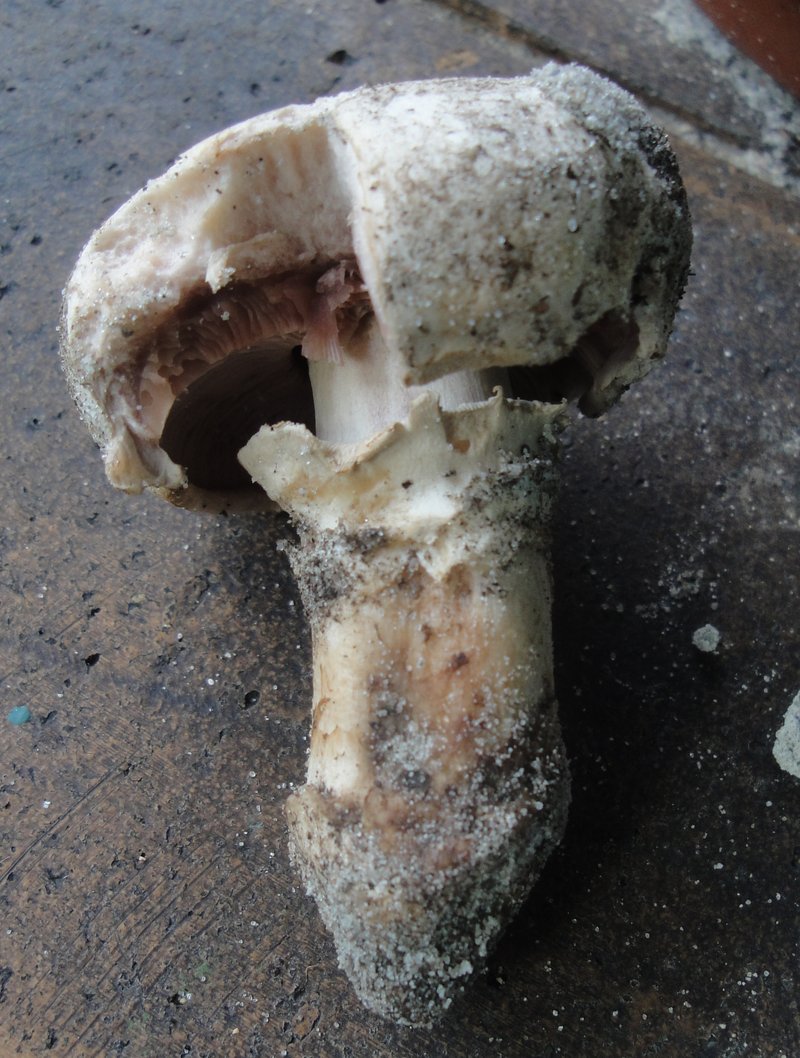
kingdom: Fungi
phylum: Basidiomycota
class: Agaricomycetes
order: Agaricales
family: Agaricaceae
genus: Agaricus
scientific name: Agaricus bitorquis
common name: vej-champignon
